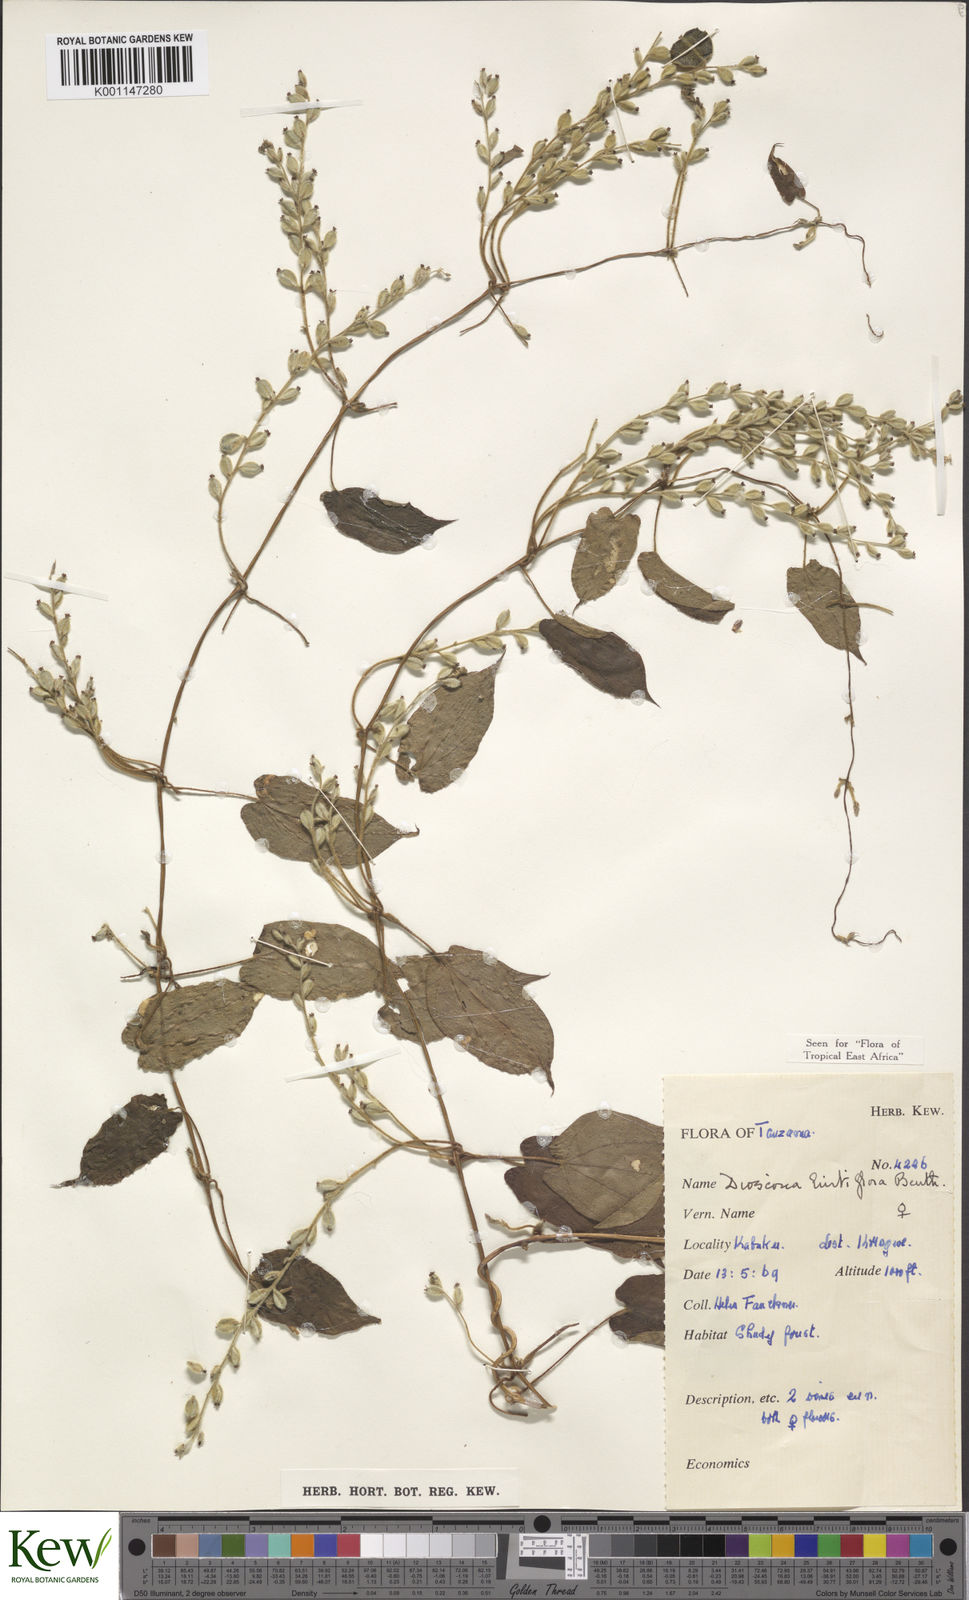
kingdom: Plantae
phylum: Tracheophyta
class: Liliopsida
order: Dioscoreales
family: Dioscoreaceae
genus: Dioscorea
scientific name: Dioscorea hirtiflora
